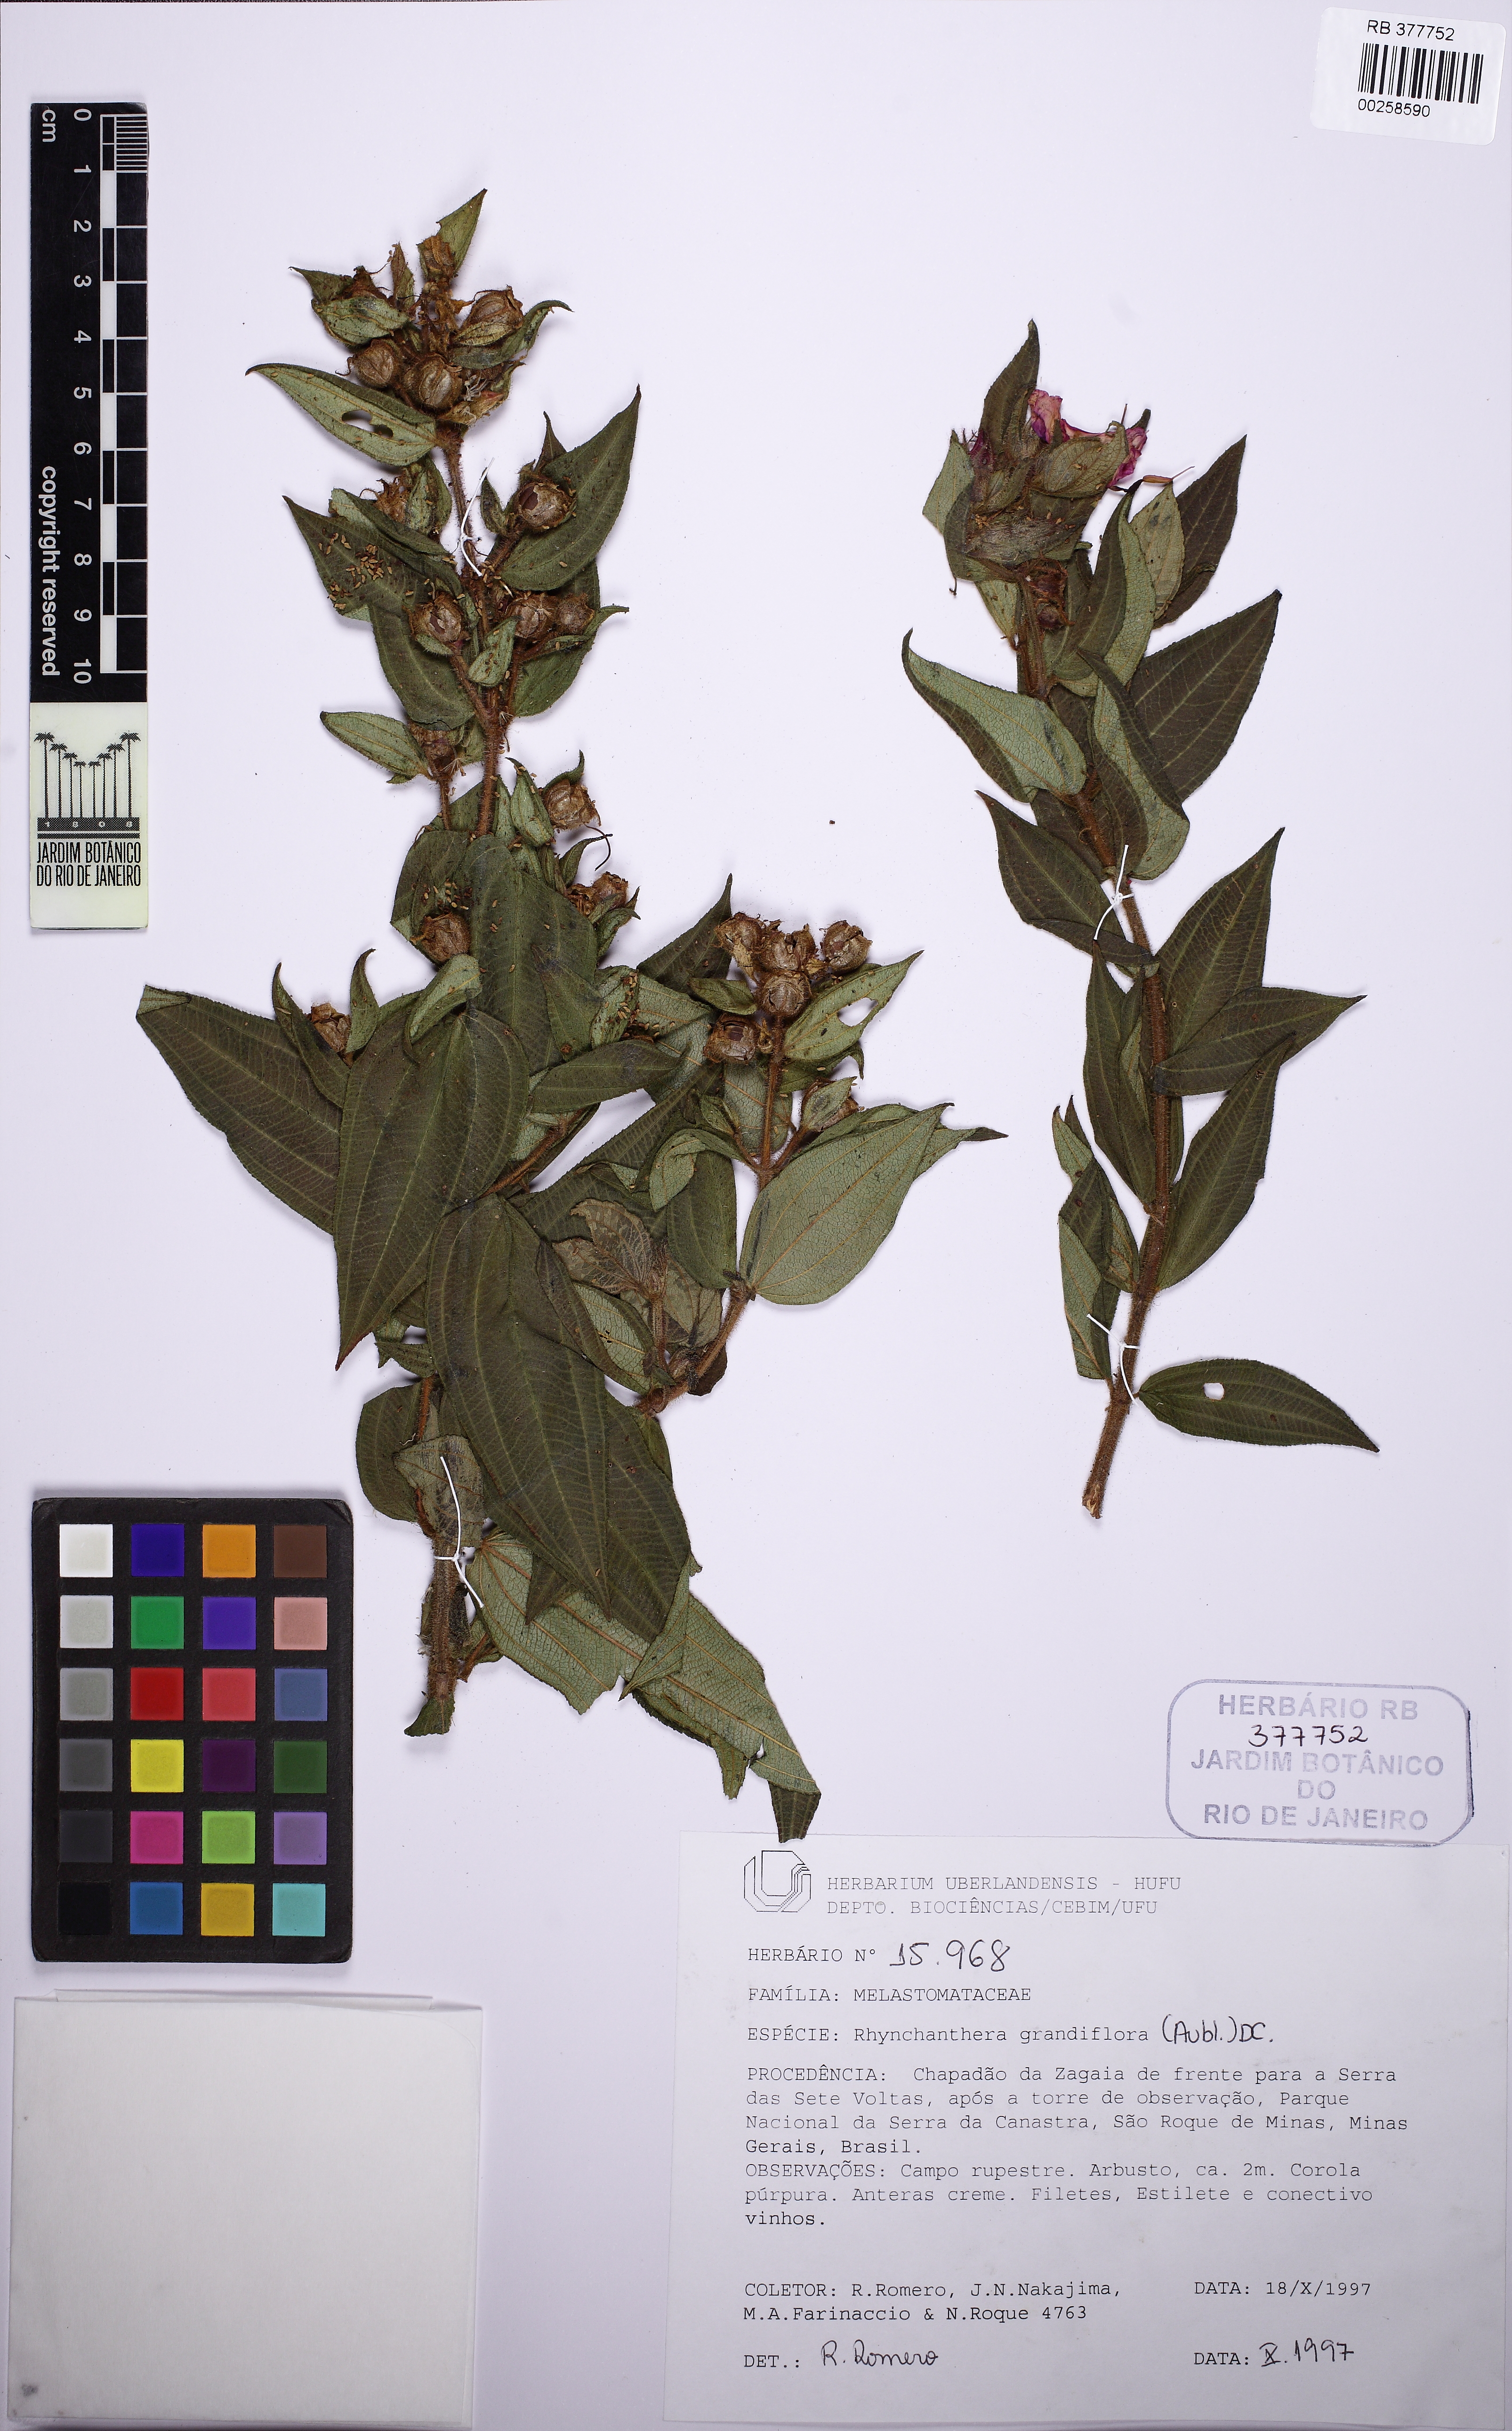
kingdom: Plantae
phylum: Tracheophyta
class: Magnoliopsida
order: Myrtales
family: Melastomataceae
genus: Rhynchanthera
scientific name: Rhynchanthera grandiflora
